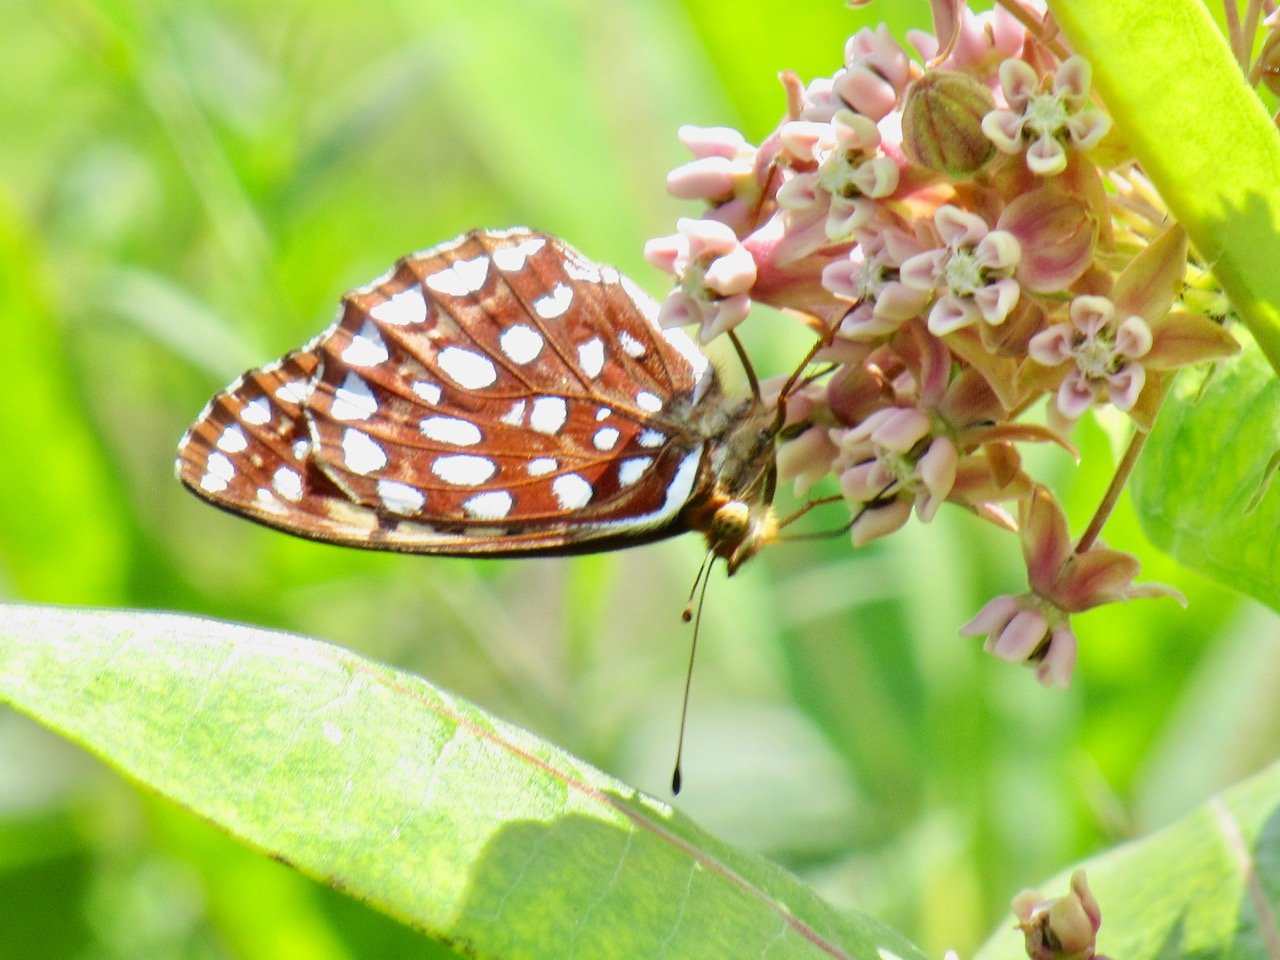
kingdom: Animalia
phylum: Arthropoda
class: Insecta
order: Lepidoptera
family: Nymphalidae
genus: Speyeria
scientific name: Speyeria aphrodite
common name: Aphrodite Fritillary
